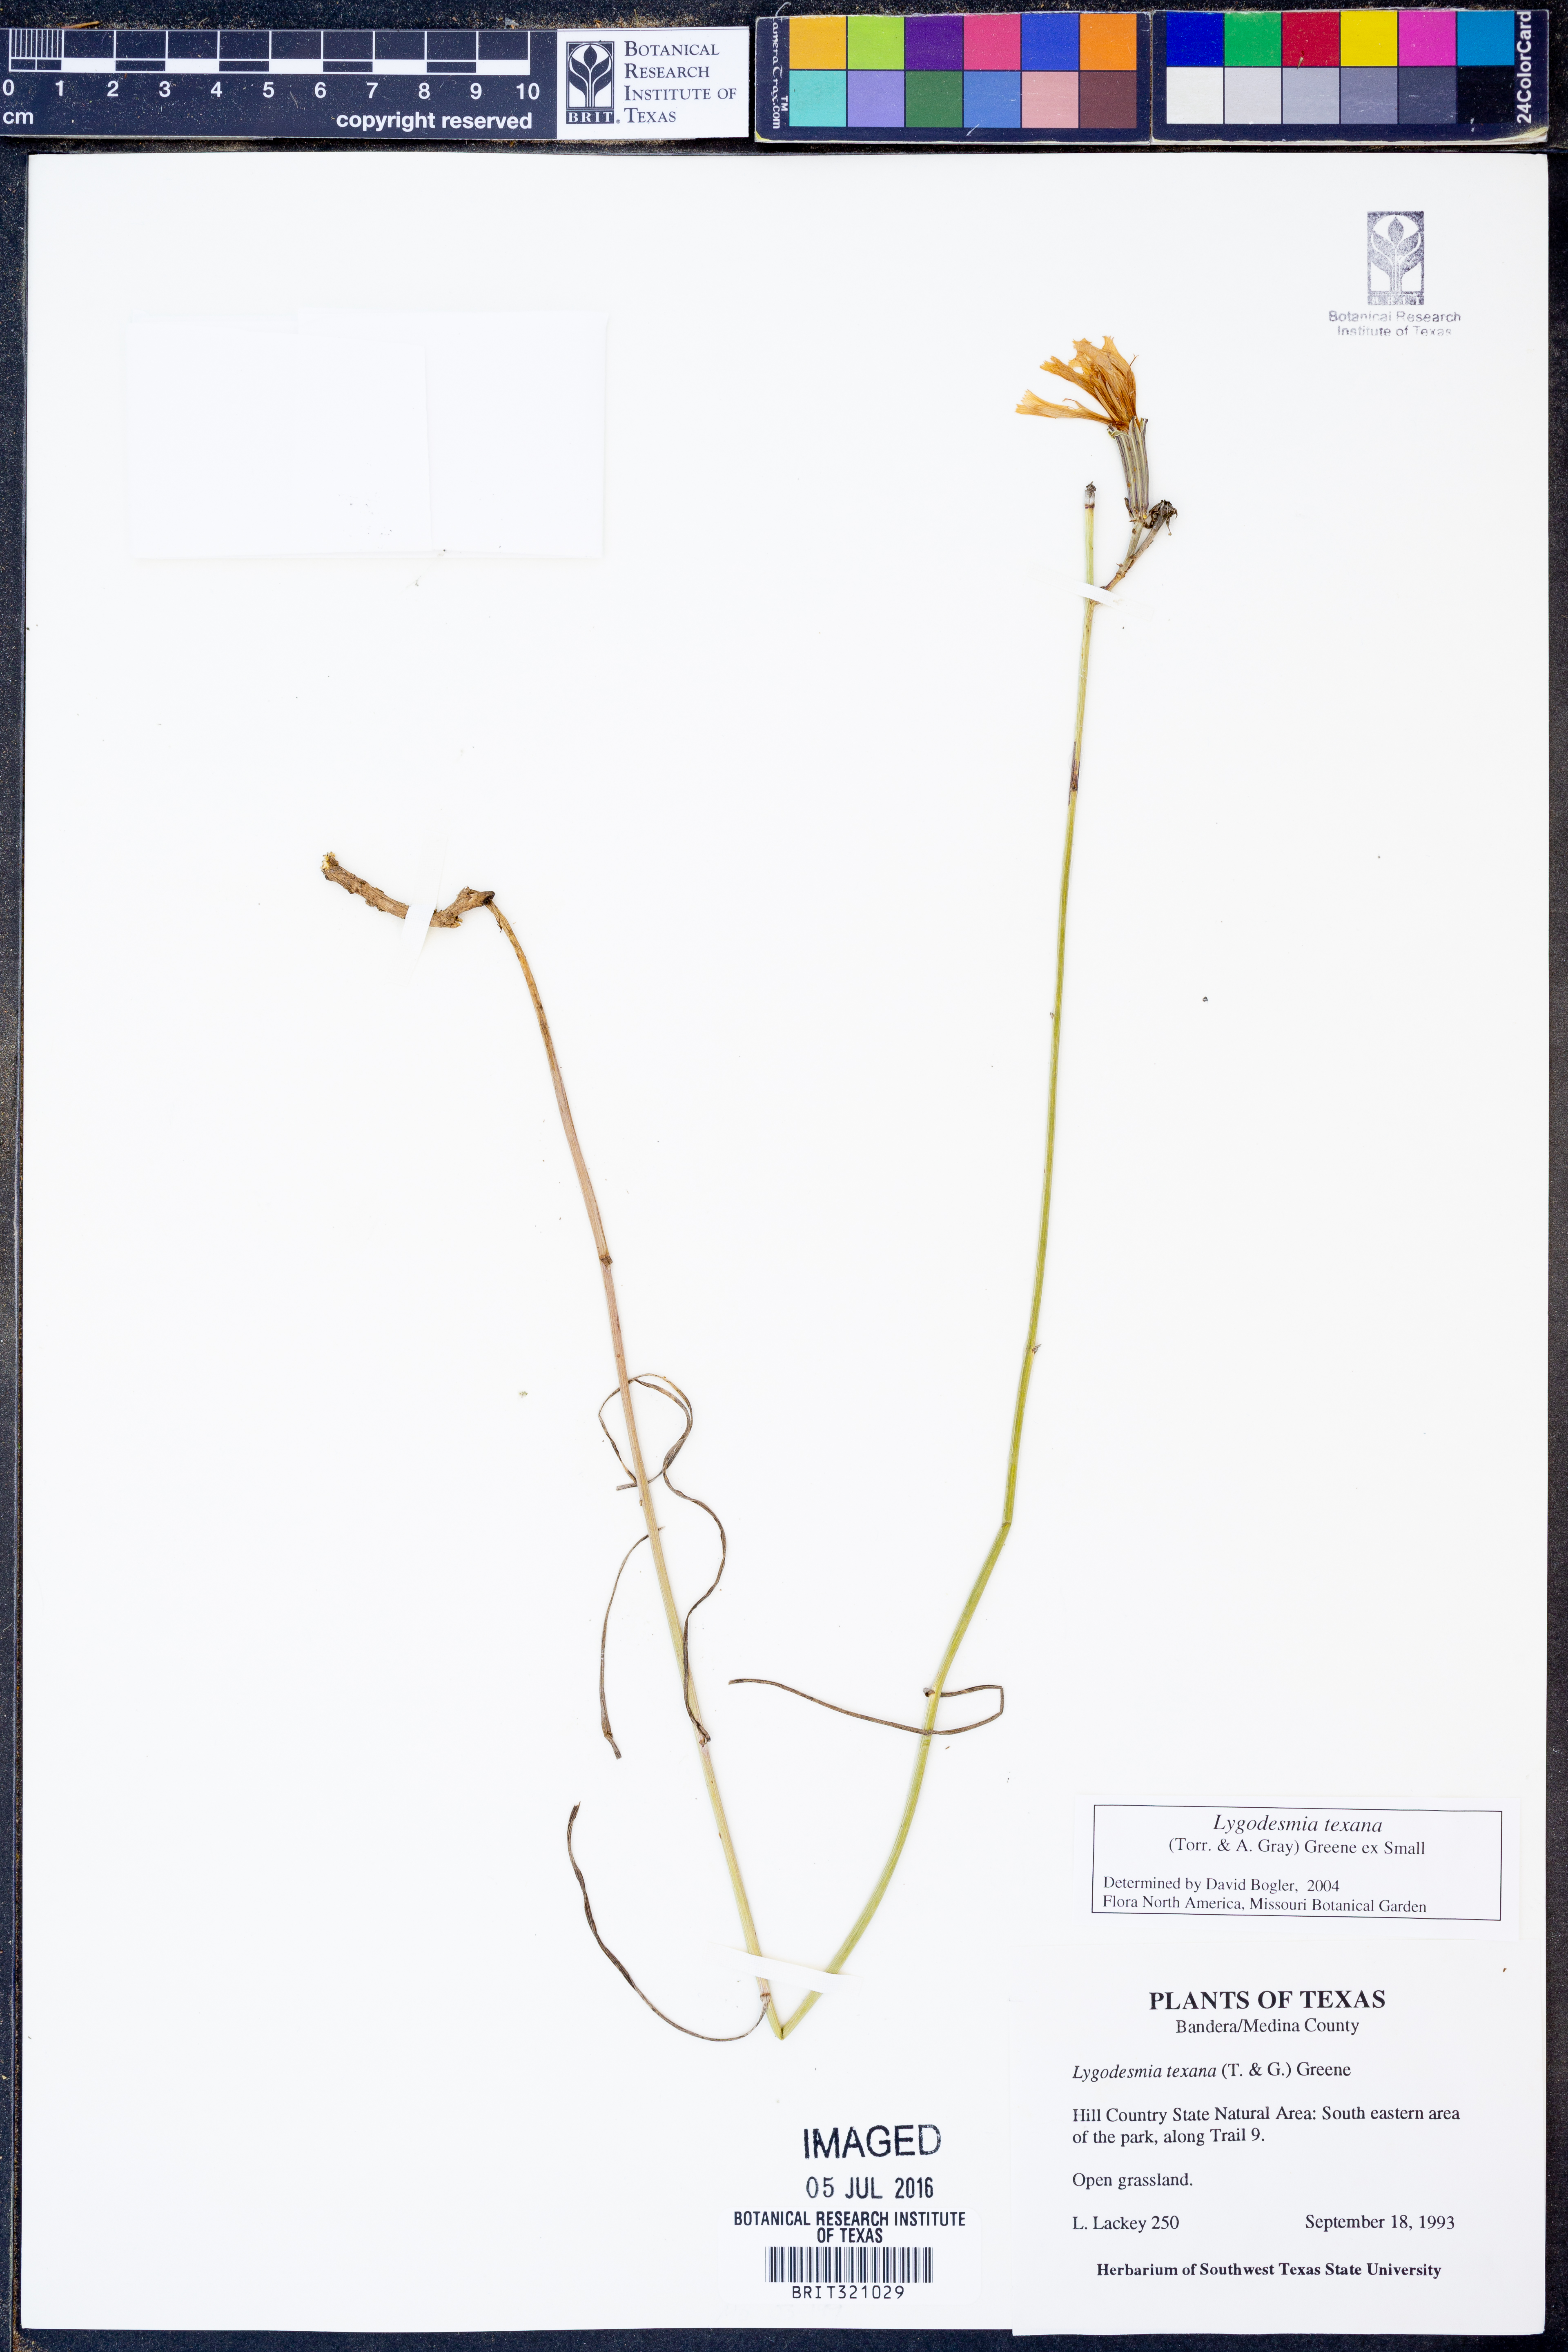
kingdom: Plantae
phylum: Tracheophyta
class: Magnoliopsida
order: Asterales
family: Asteraceae
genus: Lygodesmia
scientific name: Lygodesmia texana
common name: Texas skeleton-plant
